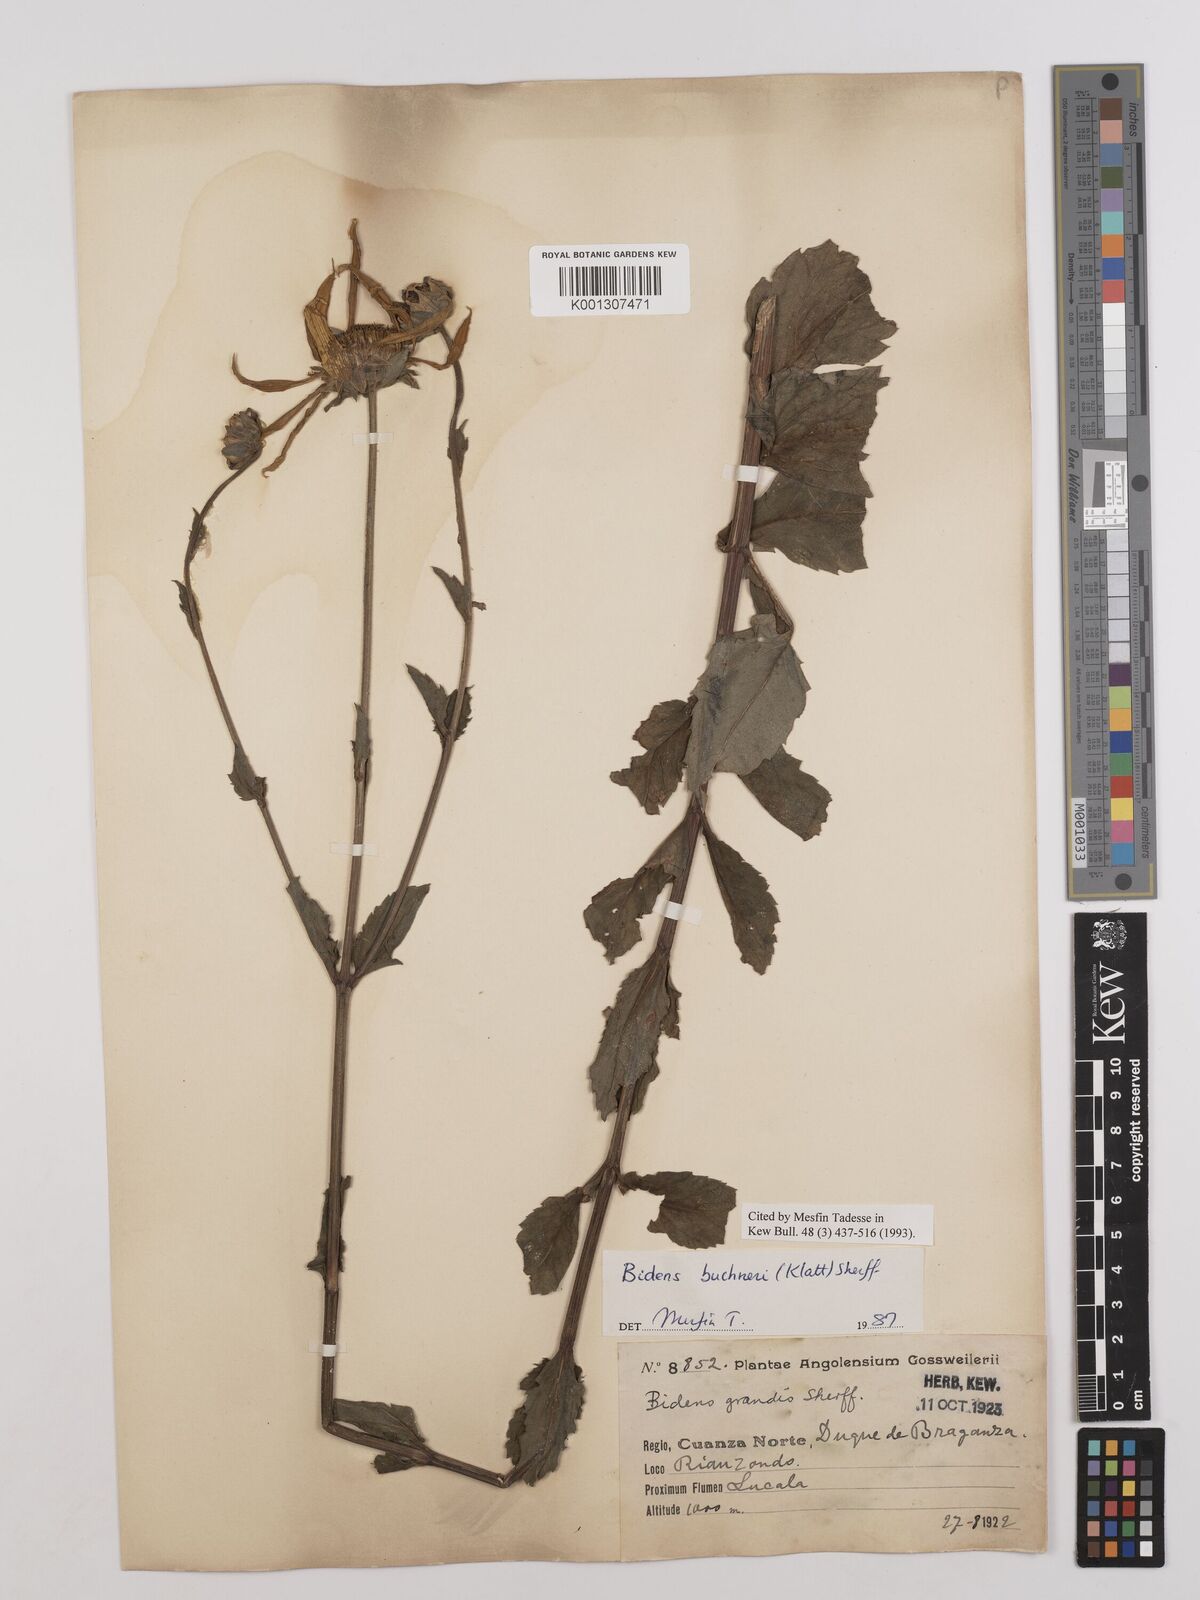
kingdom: Plantae
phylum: Tracheophyta
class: Magnoliopsida
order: Asterales
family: Asteraceae
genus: Bidens
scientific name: Bidens buchneri
